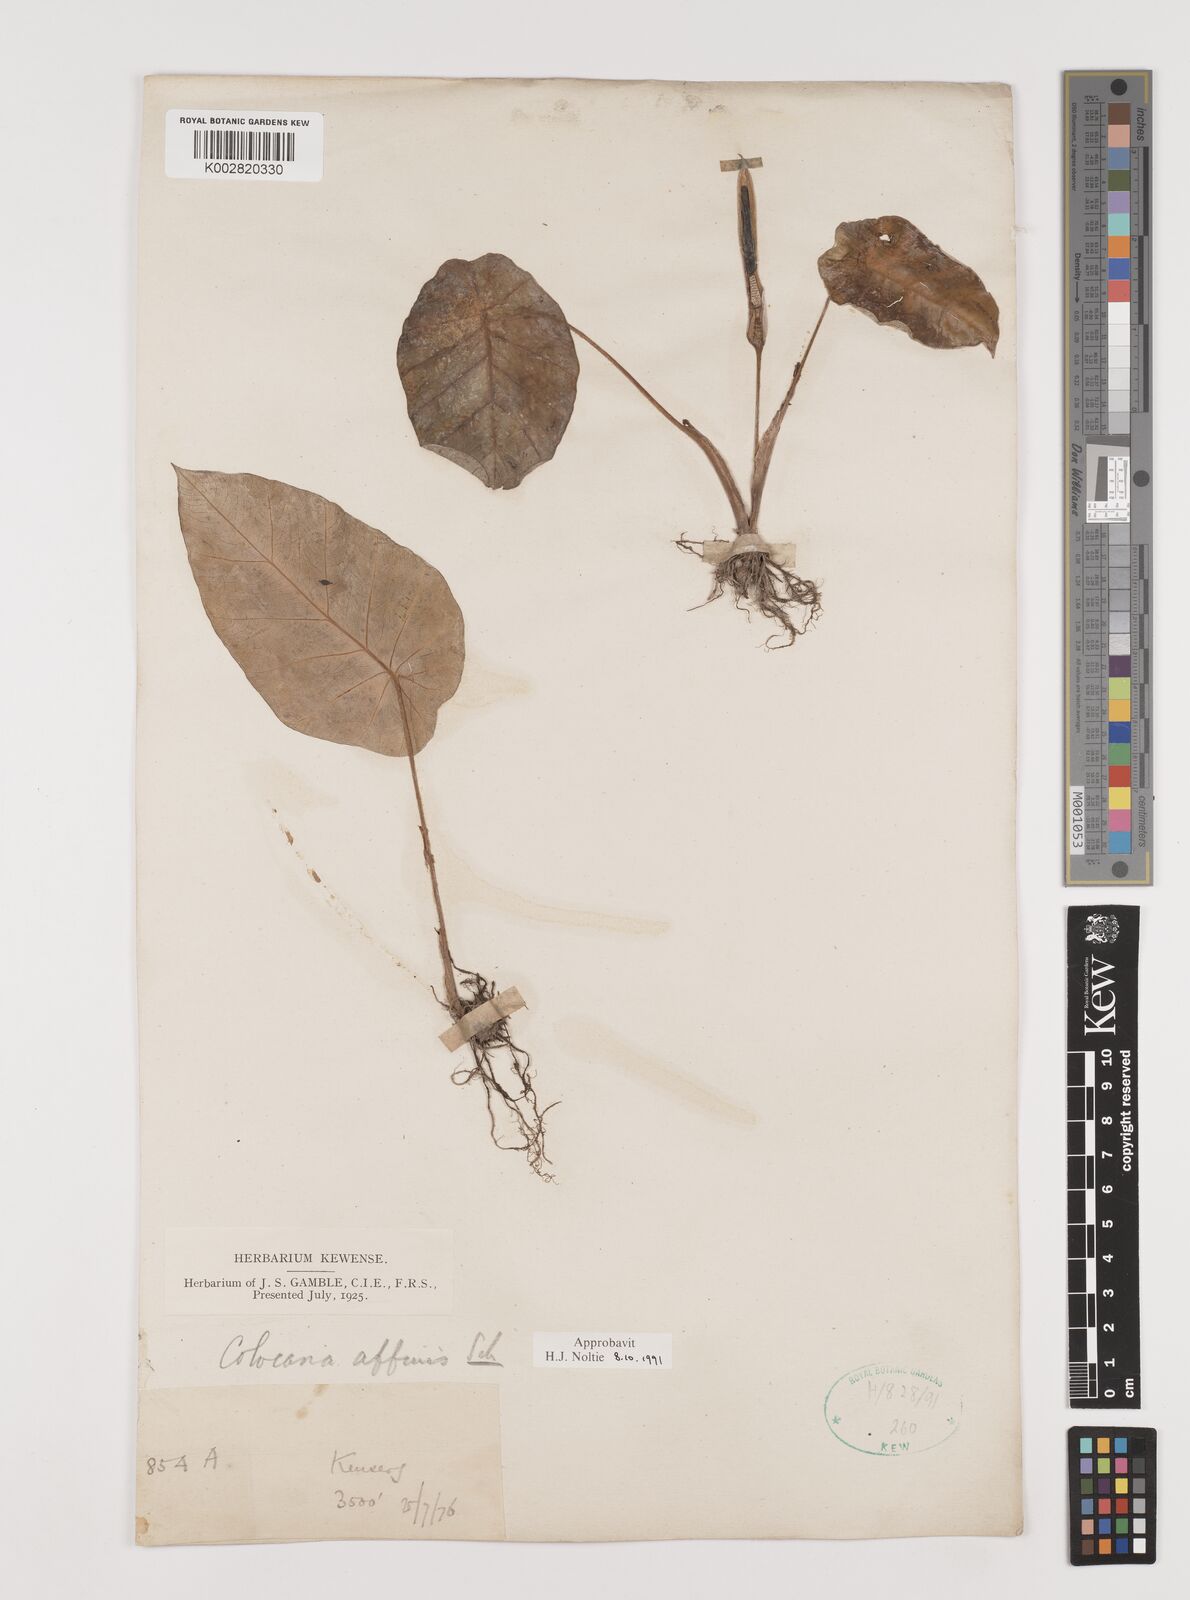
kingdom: Plantae
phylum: Tracheophyta
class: Liliopsida
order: Alismatales
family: Araceae
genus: Colocasia
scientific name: Colocasia affinis
